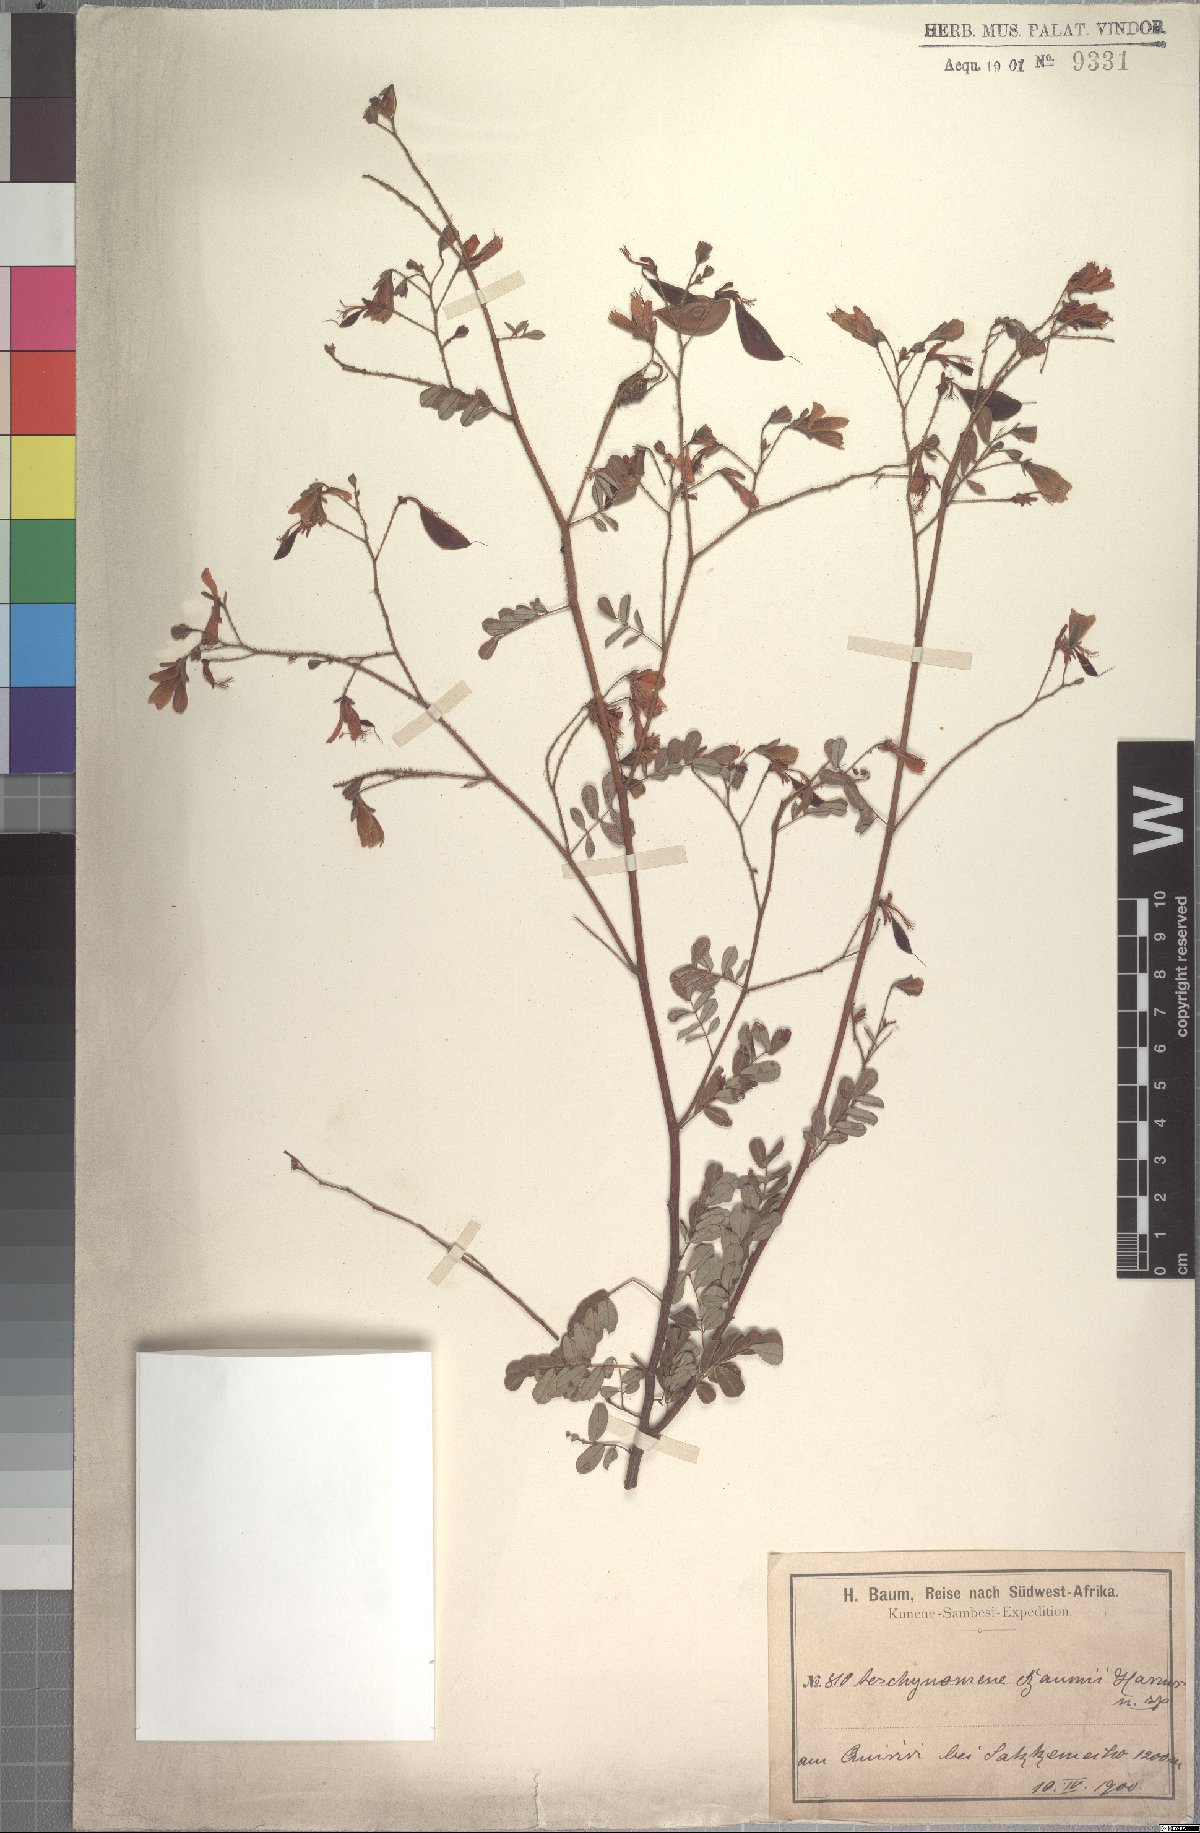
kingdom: Plantae
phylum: Tracheophyta
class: Magnoliopsida
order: Fabales
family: Fabaceae
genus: Aeschynomene
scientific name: Aeschynomene baumii
